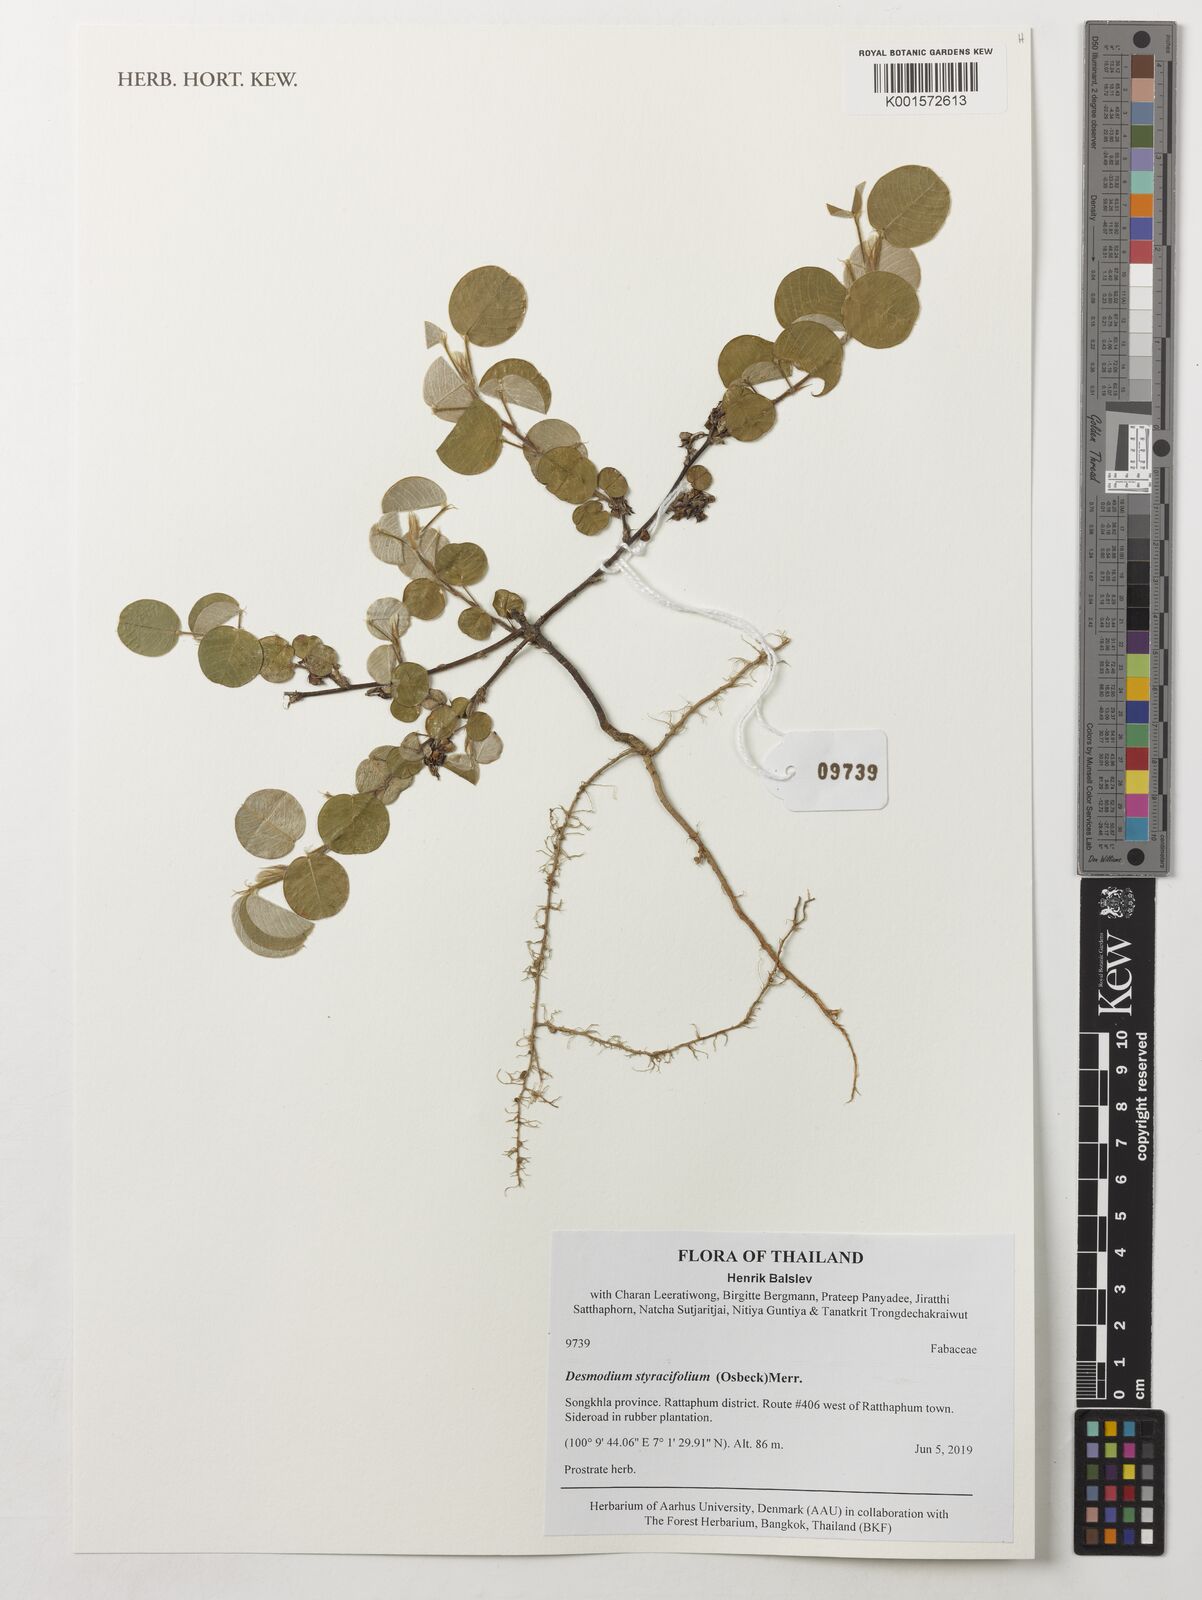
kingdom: Plantae
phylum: Tracheophyta
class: Magnoliopsida
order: Fabales
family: Fabaceae
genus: Grona
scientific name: Grona styracifolia
